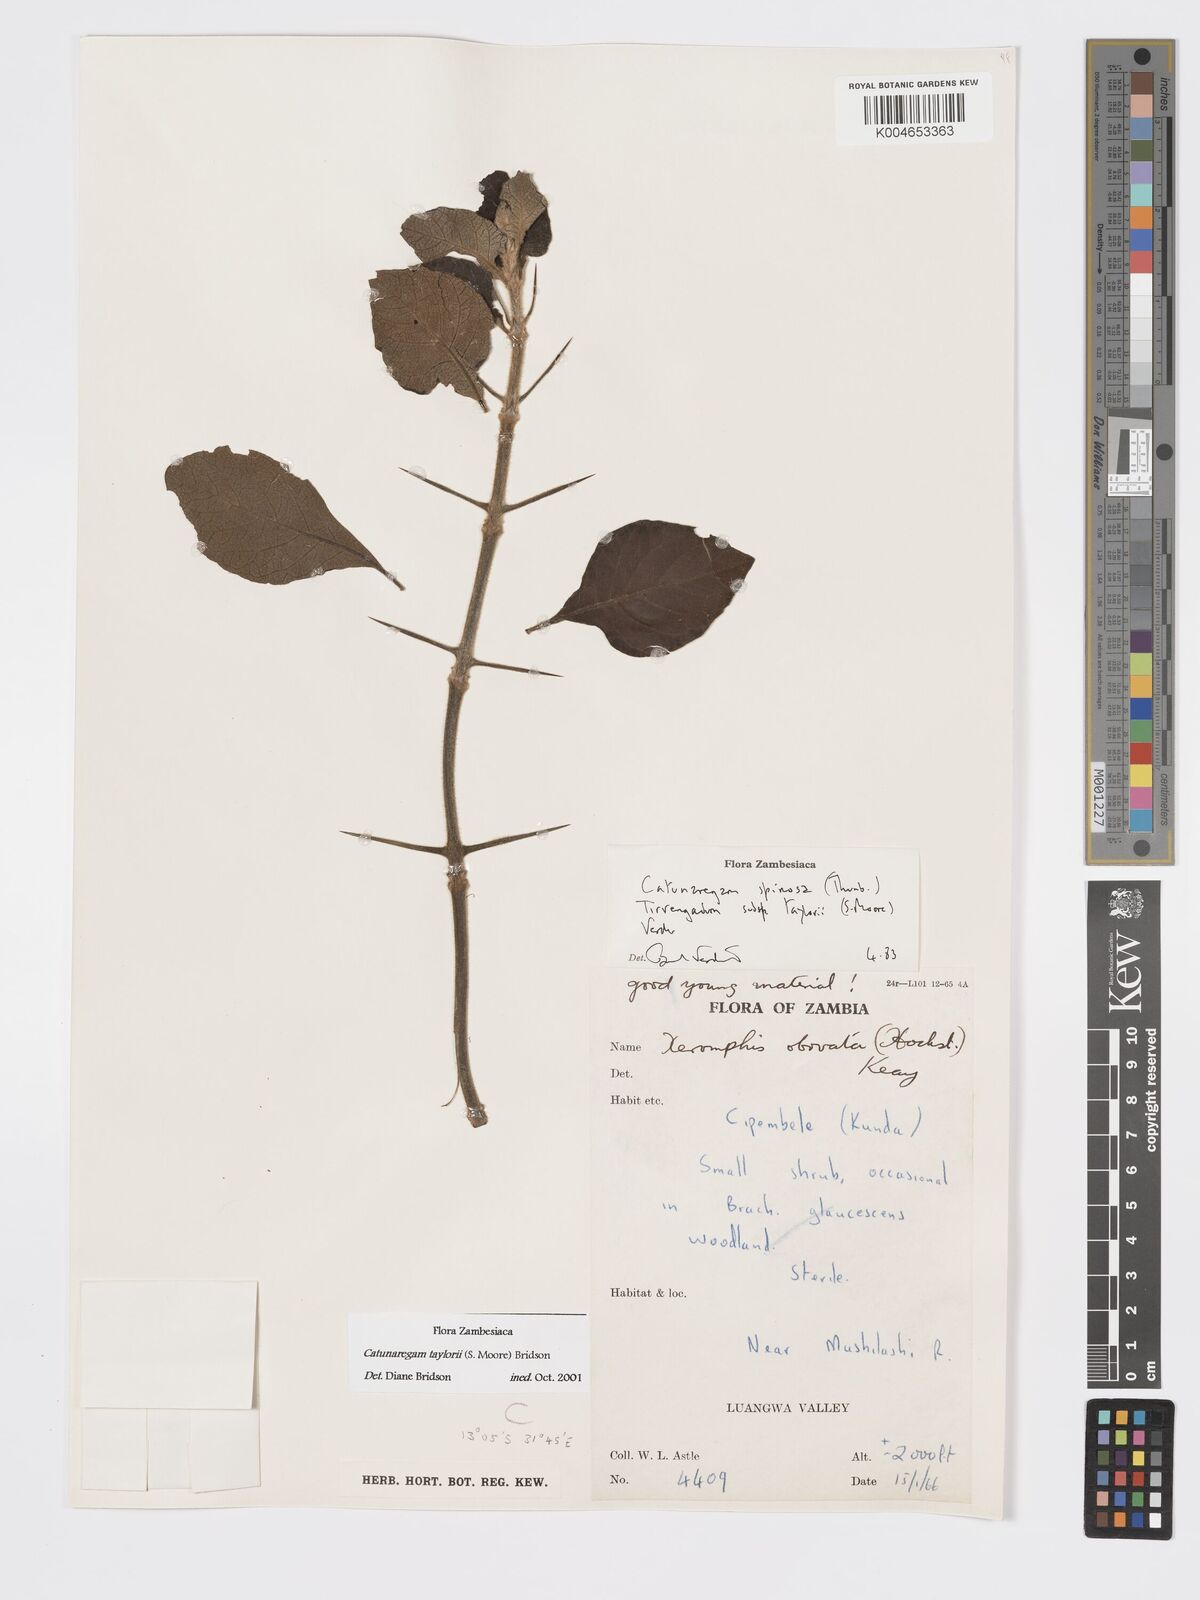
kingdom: Plantae
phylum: Tracheophyta
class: Magnoliopsida
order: Gentianales
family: Rubiaceae
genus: Catunaregam
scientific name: Catunaregam taylorii
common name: Miombo bone-apple
